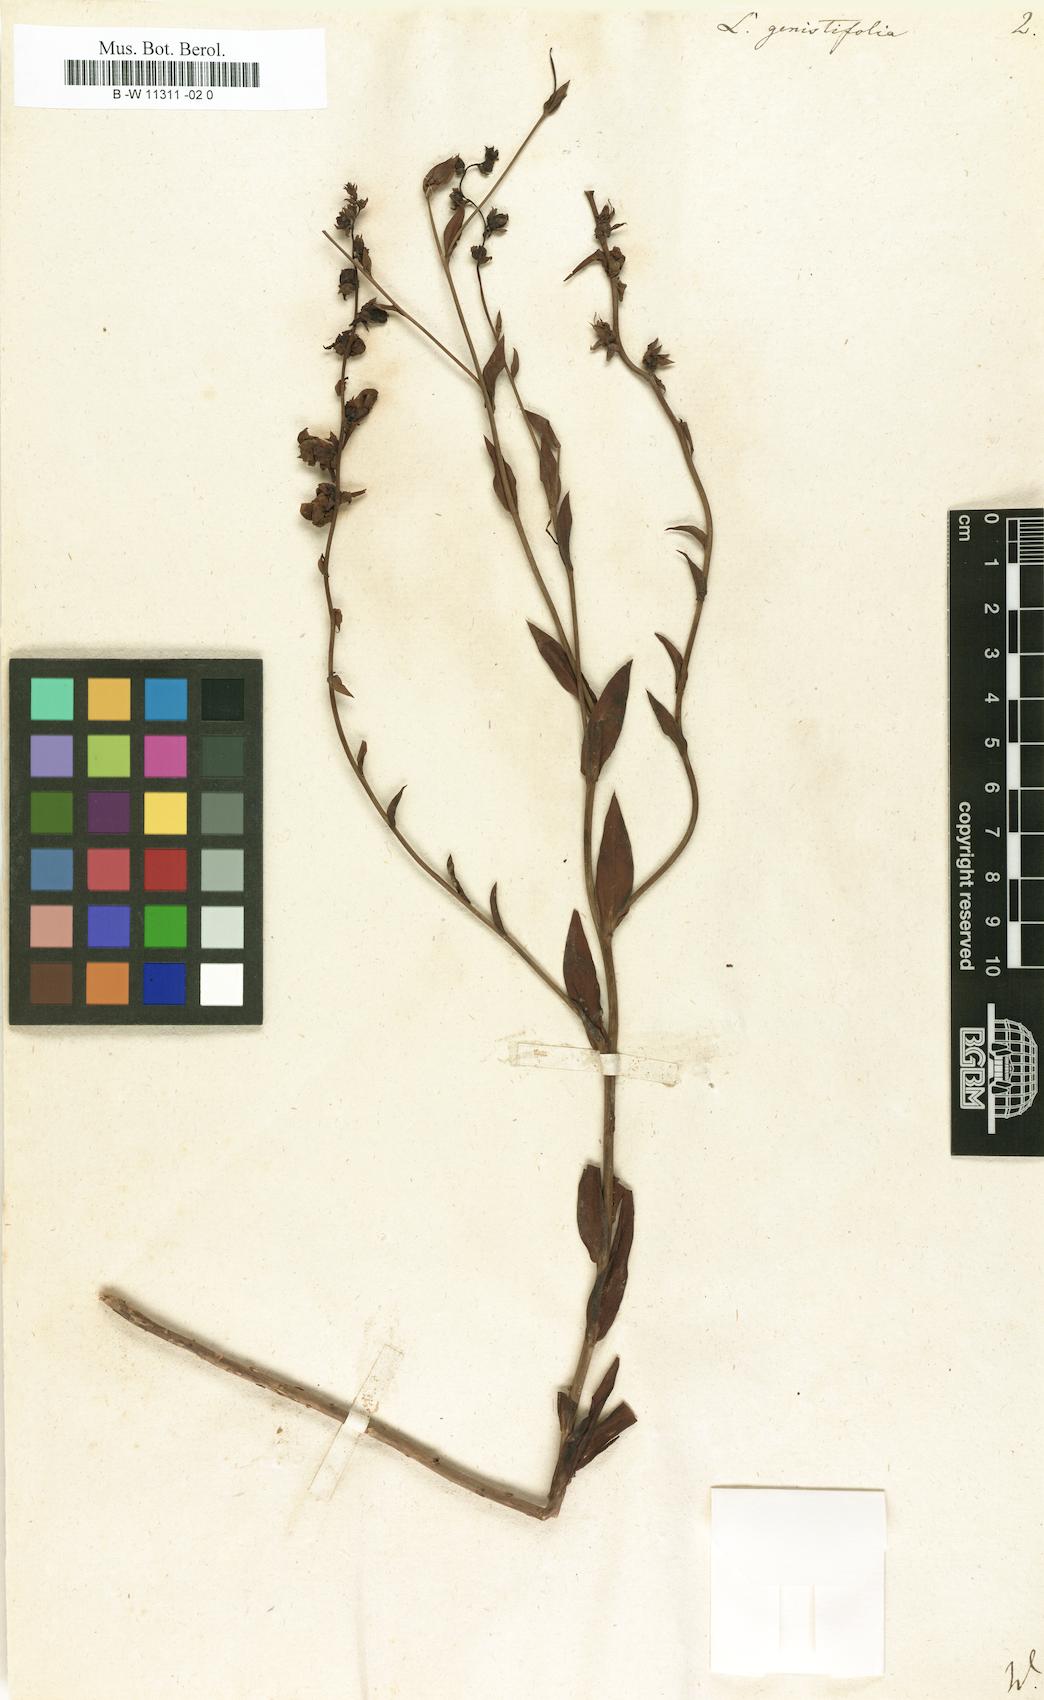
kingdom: Plantae
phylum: Tracheophyta
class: Magnoliopsida
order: Lamiales
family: Plantaginaceae
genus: Linaria
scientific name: Linaria genistifolia
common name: Broomleaf toadflax
